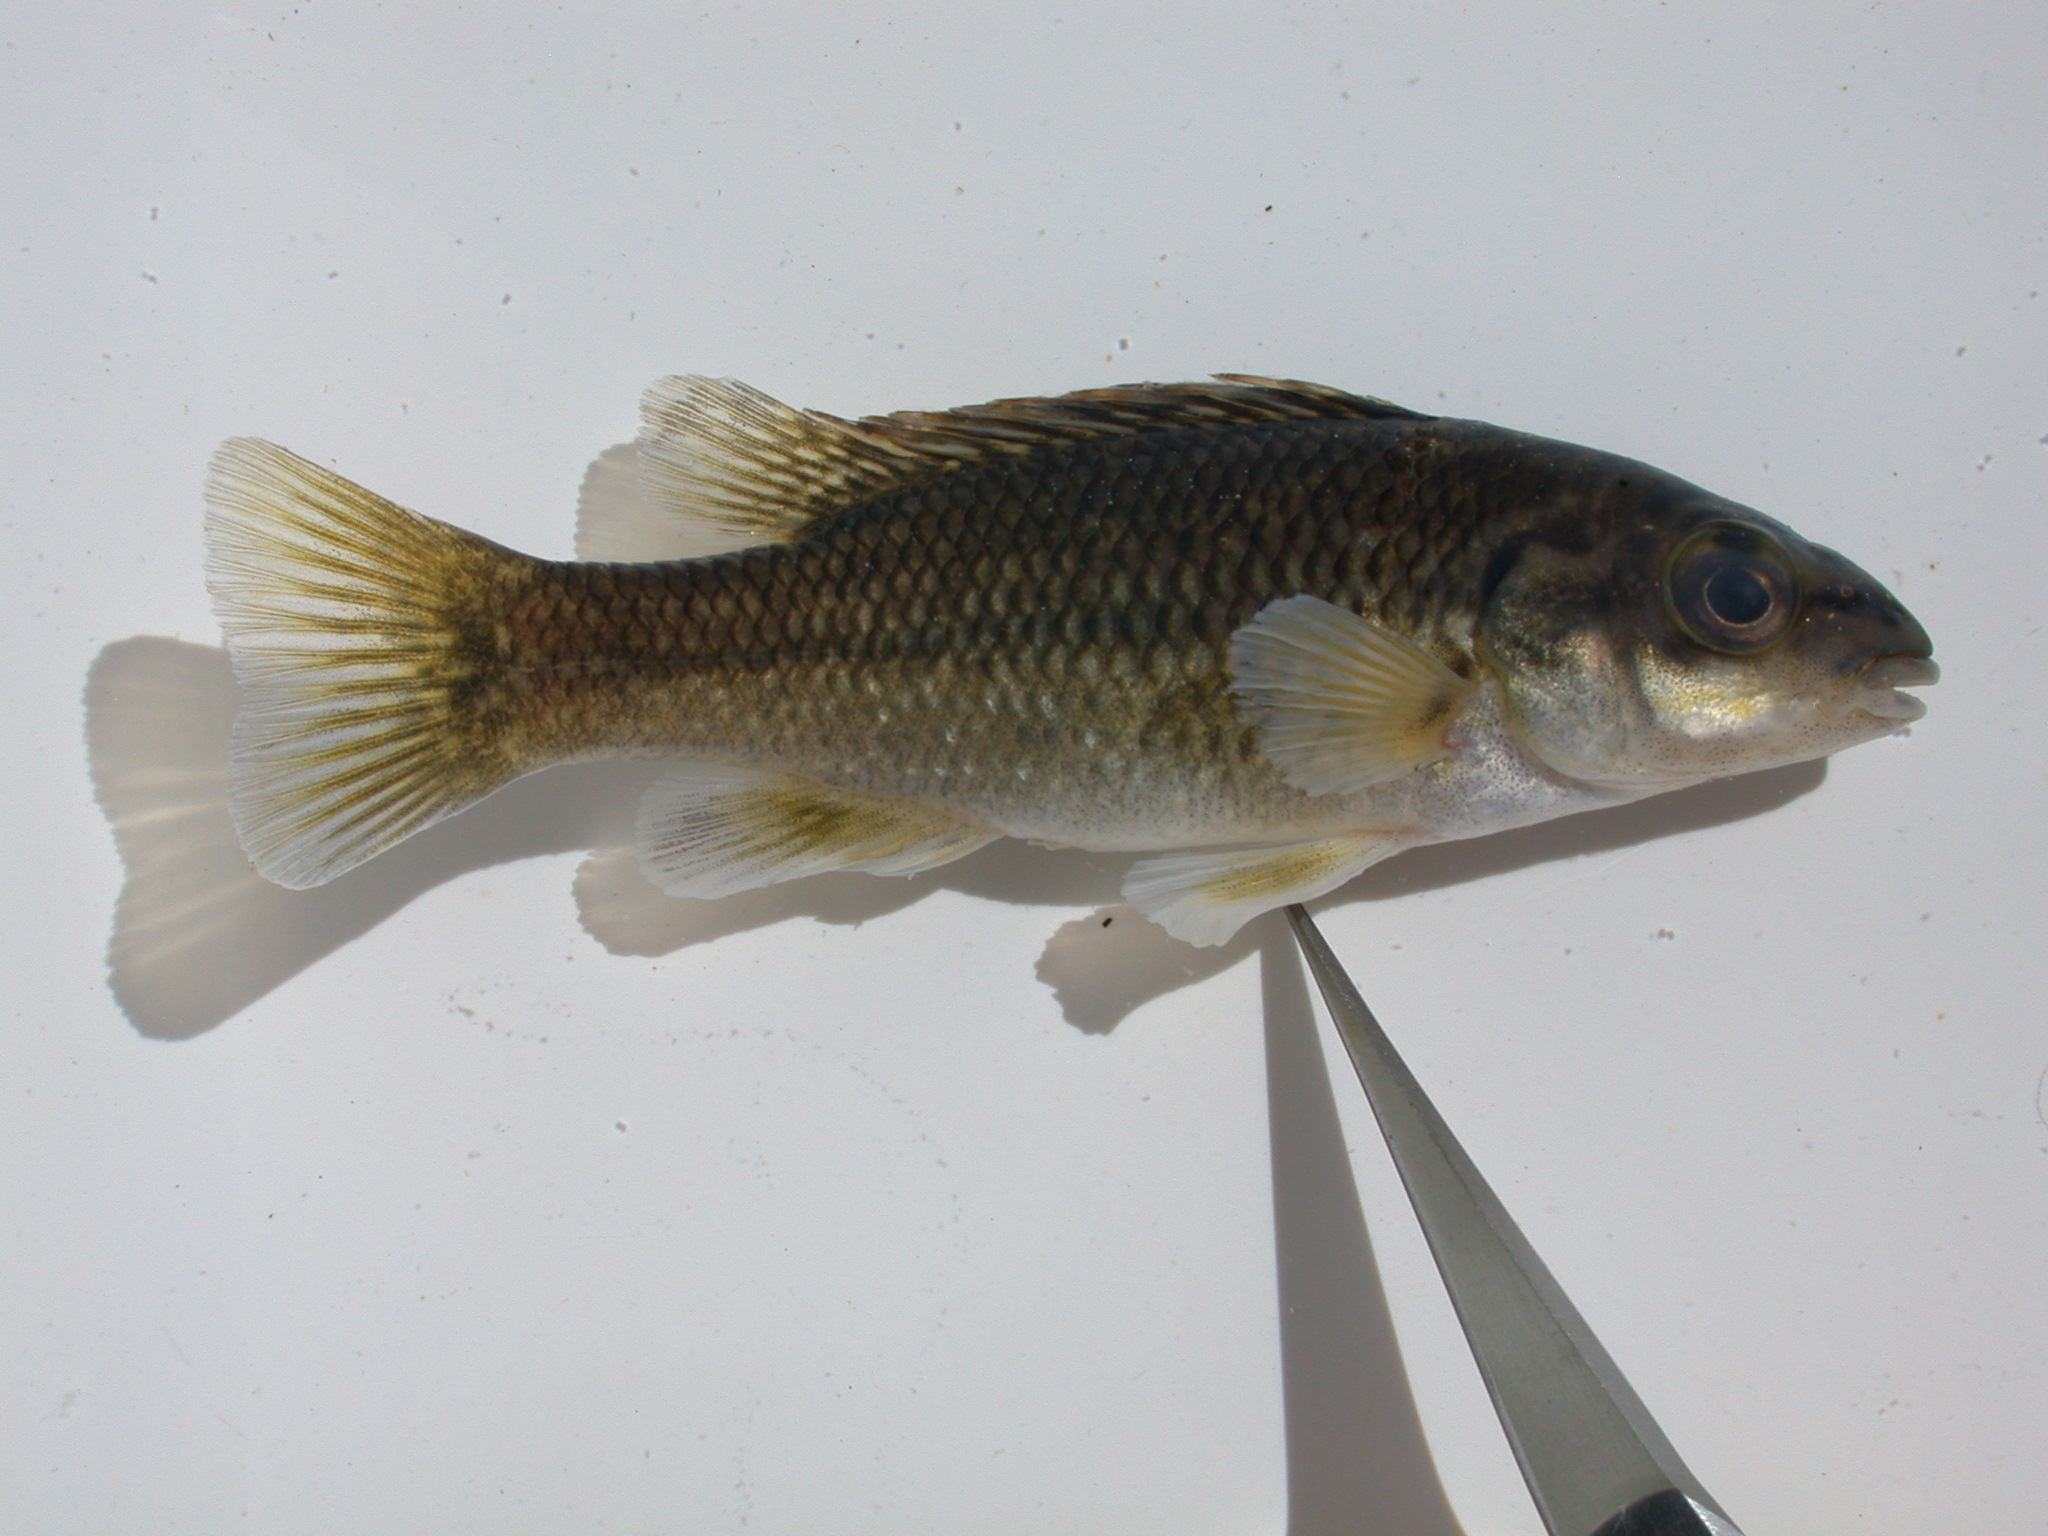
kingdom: Animalia
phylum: Chordata
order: Perciformes
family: Cichlidae
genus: Oxylapia
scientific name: Oxylapia polli
